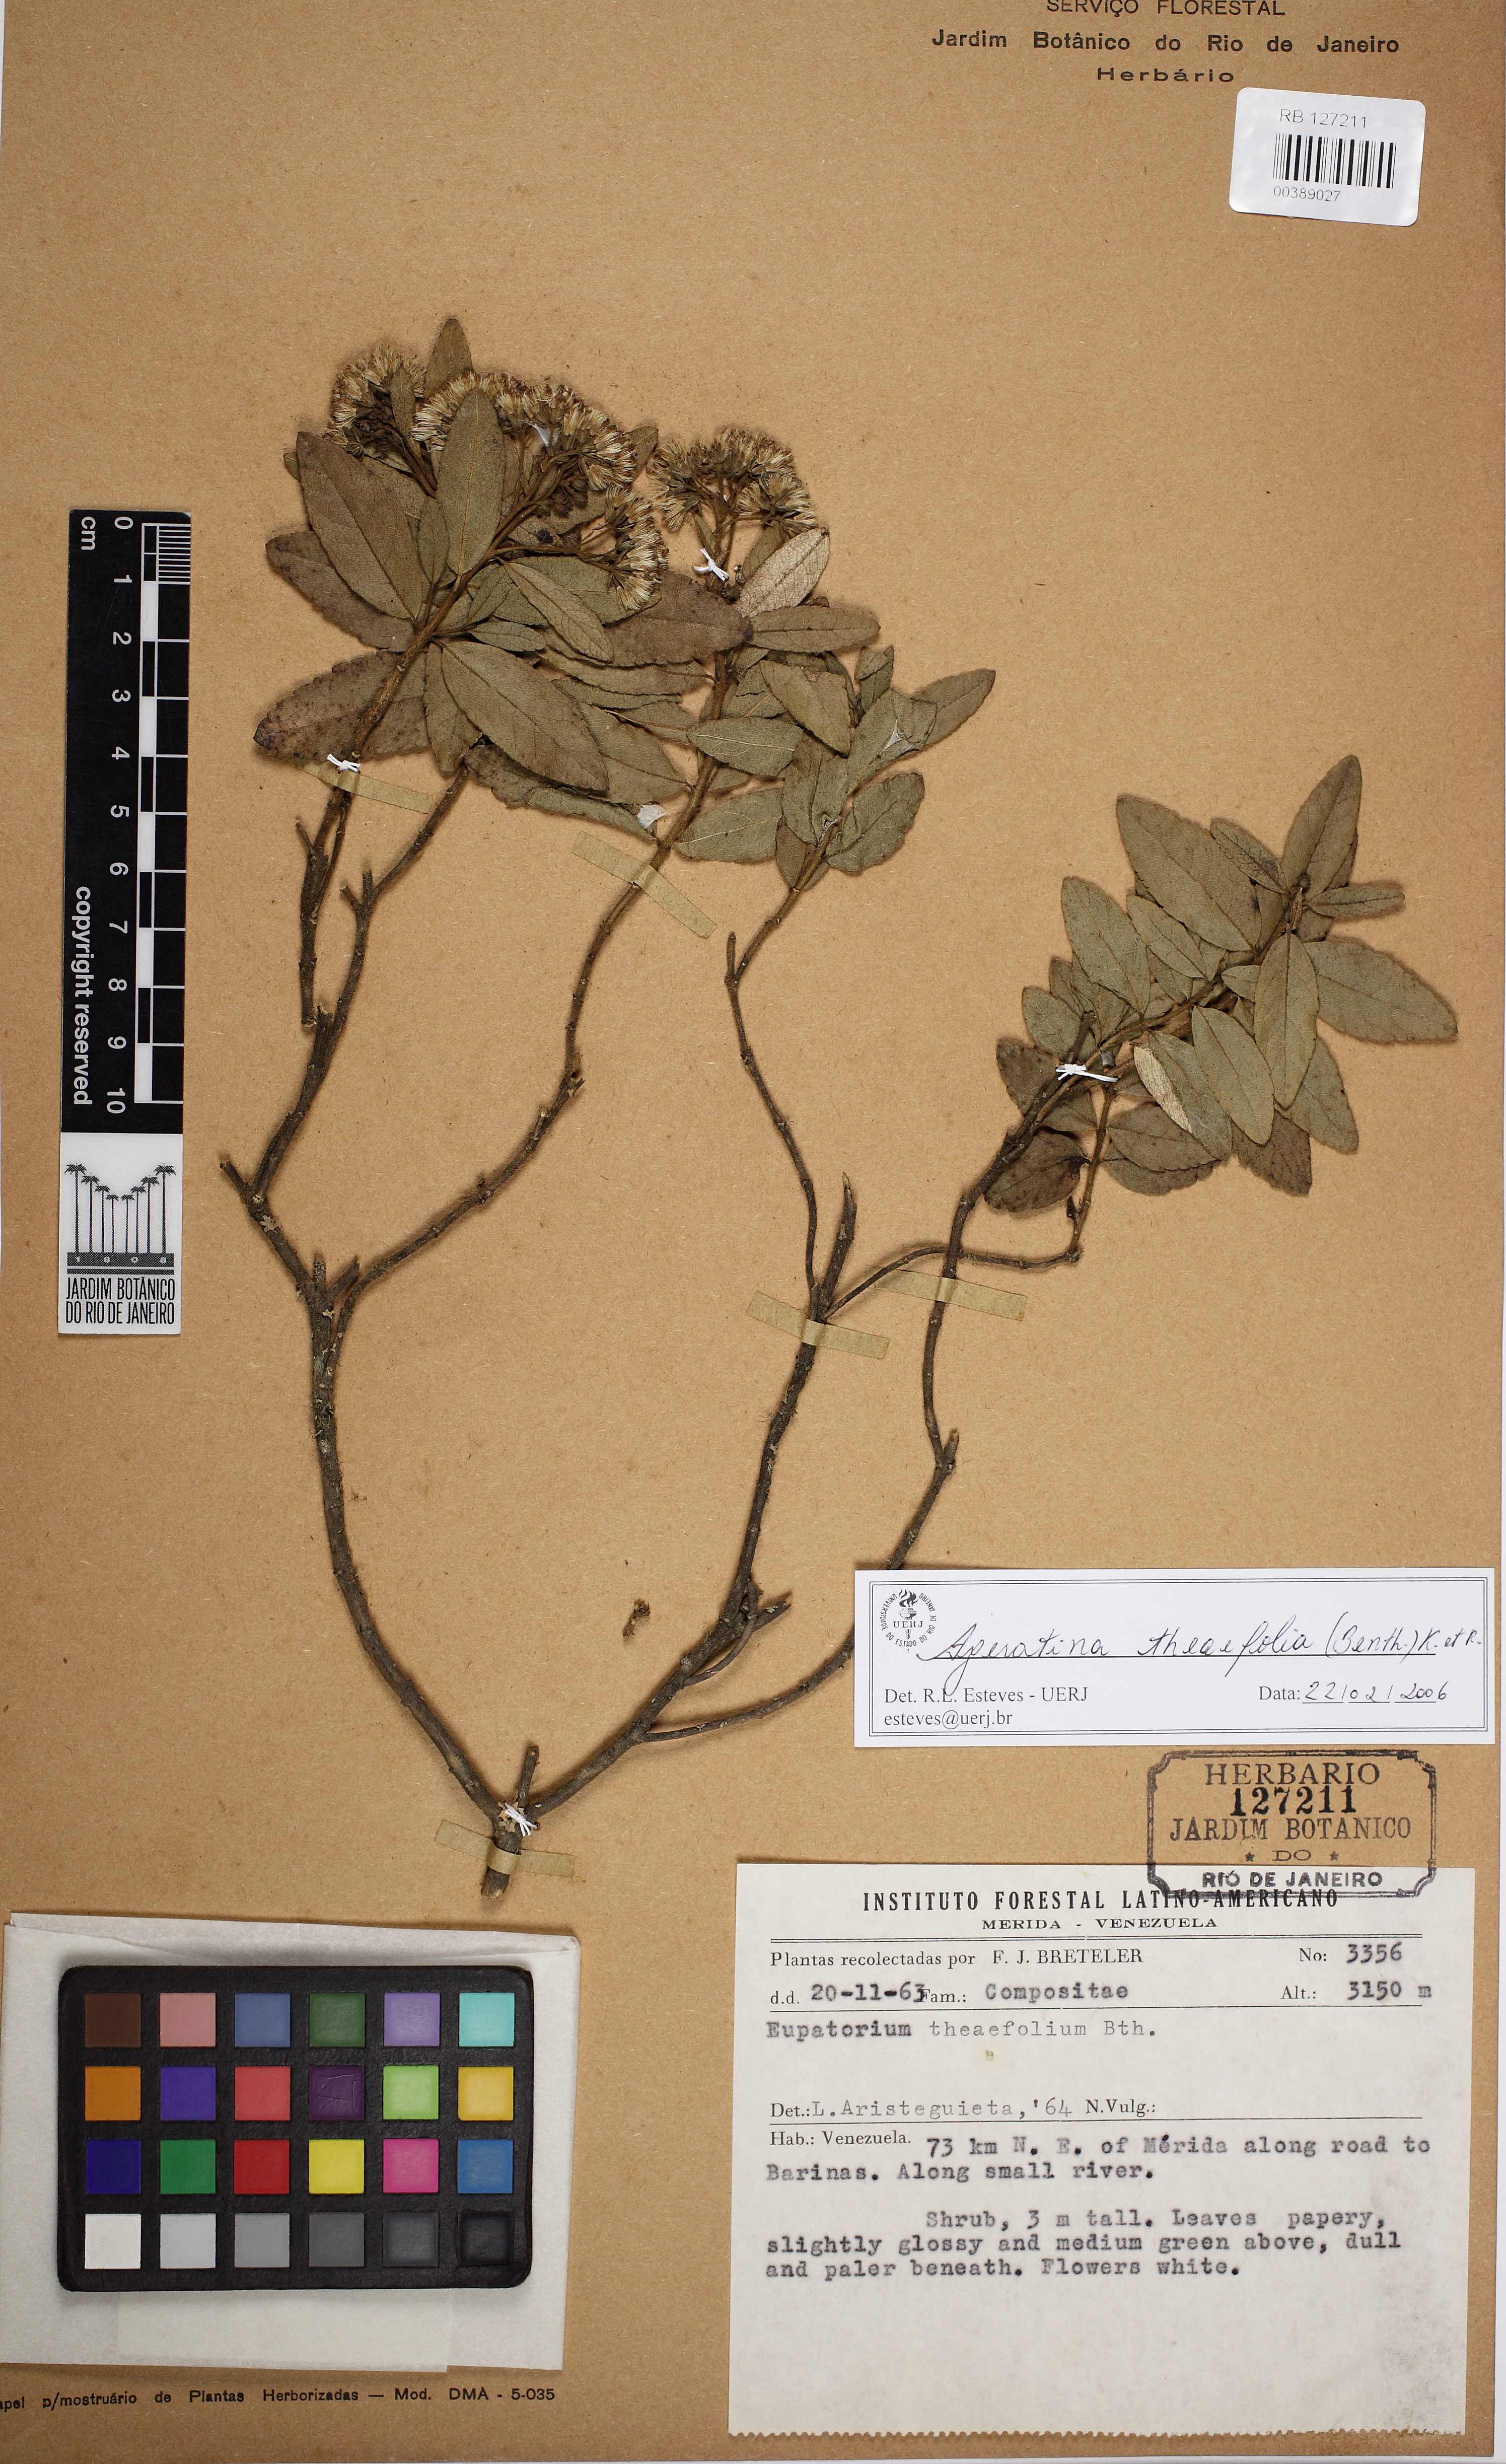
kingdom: Plantae
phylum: Tracheophyta
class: Magnoliopsida
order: Asterales
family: Asteraceae
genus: Ageratina
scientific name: Ageratina theaefolia
